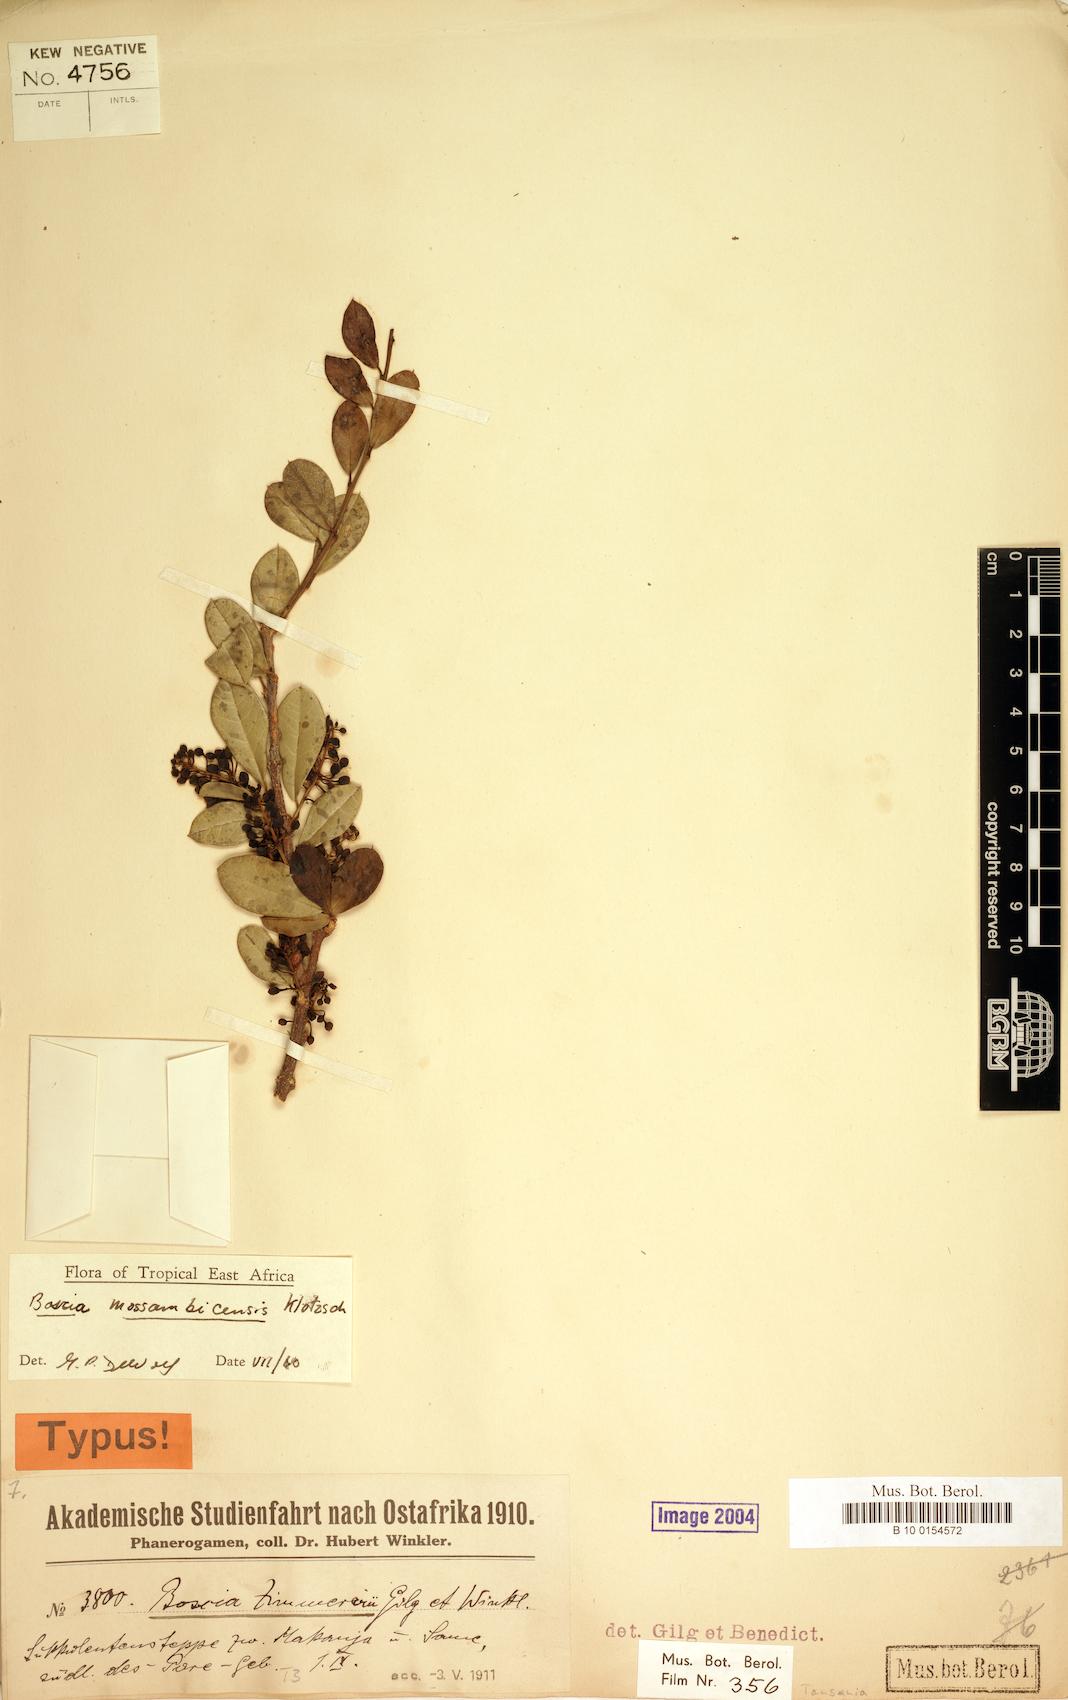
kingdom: Plantae
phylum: Tracheophyta
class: Magnoliopsida
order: Brassicales
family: Capparaceae
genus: Boscia
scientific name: Boscia mossambicensis
